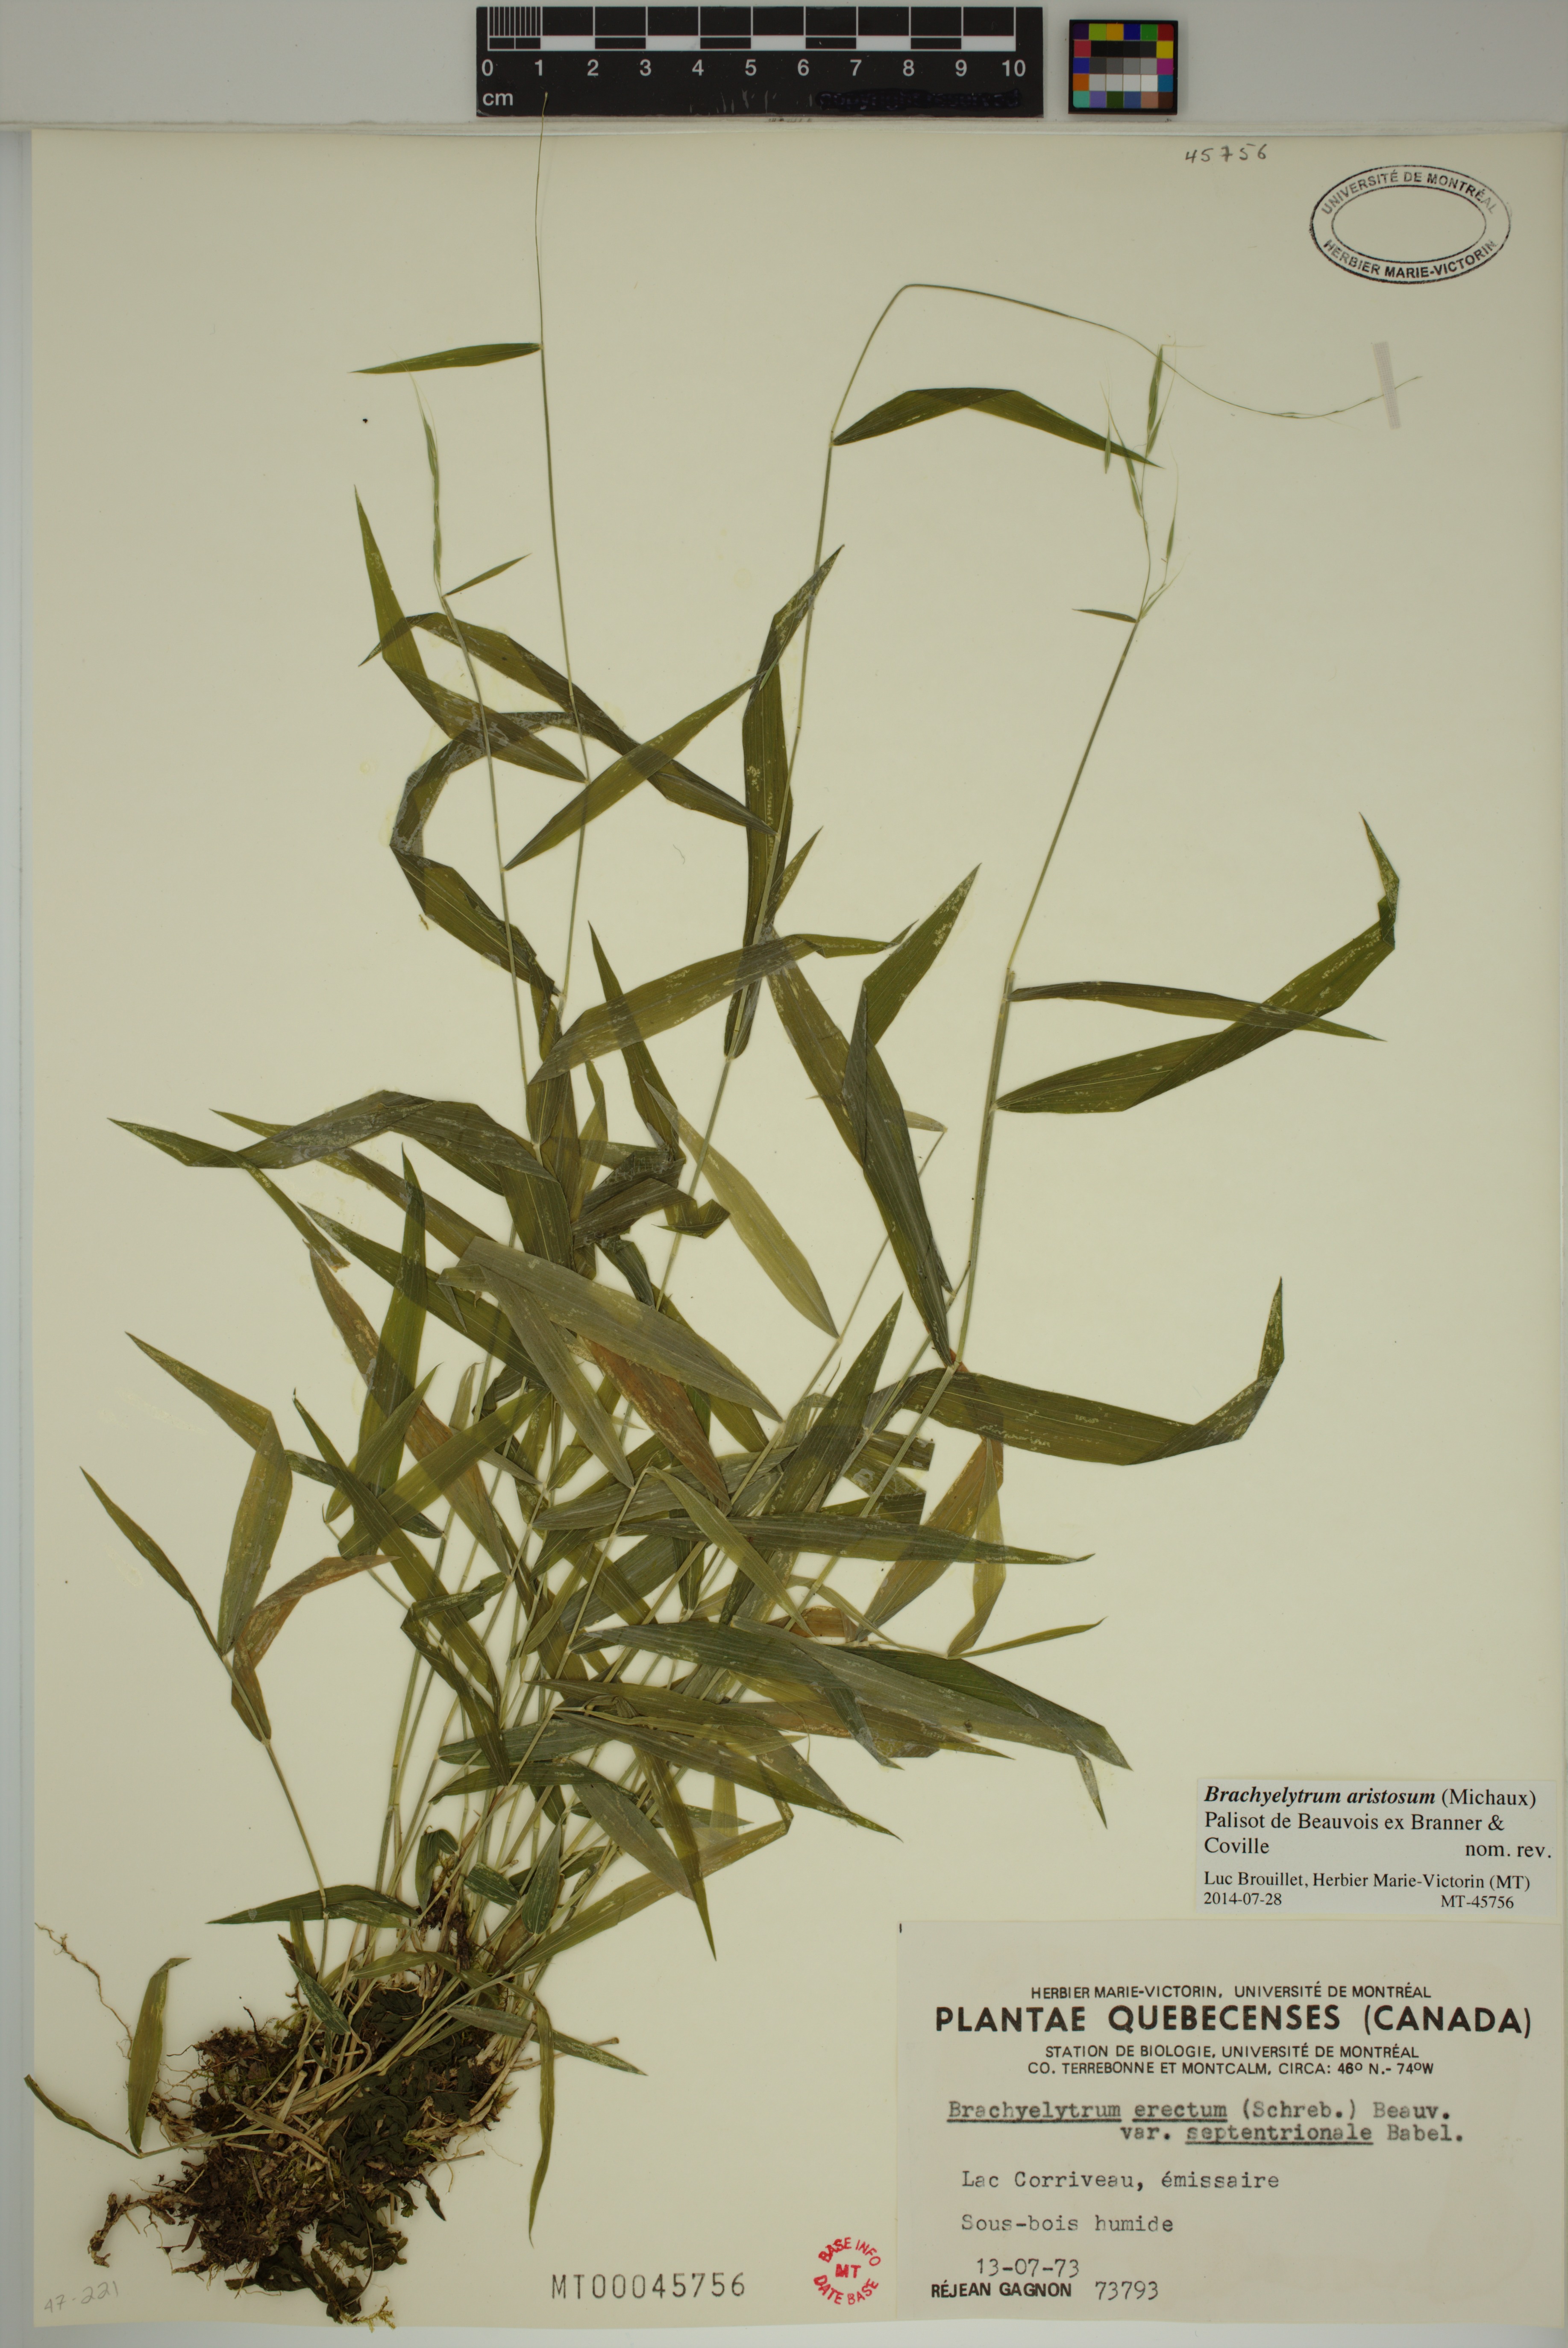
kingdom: Plantae
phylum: Tracheophyta
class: Liliopsida
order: Poales
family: Poaceae
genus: Brachyelytrum
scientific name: Brachyelytrum aristosum
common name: Northern shorthusk
